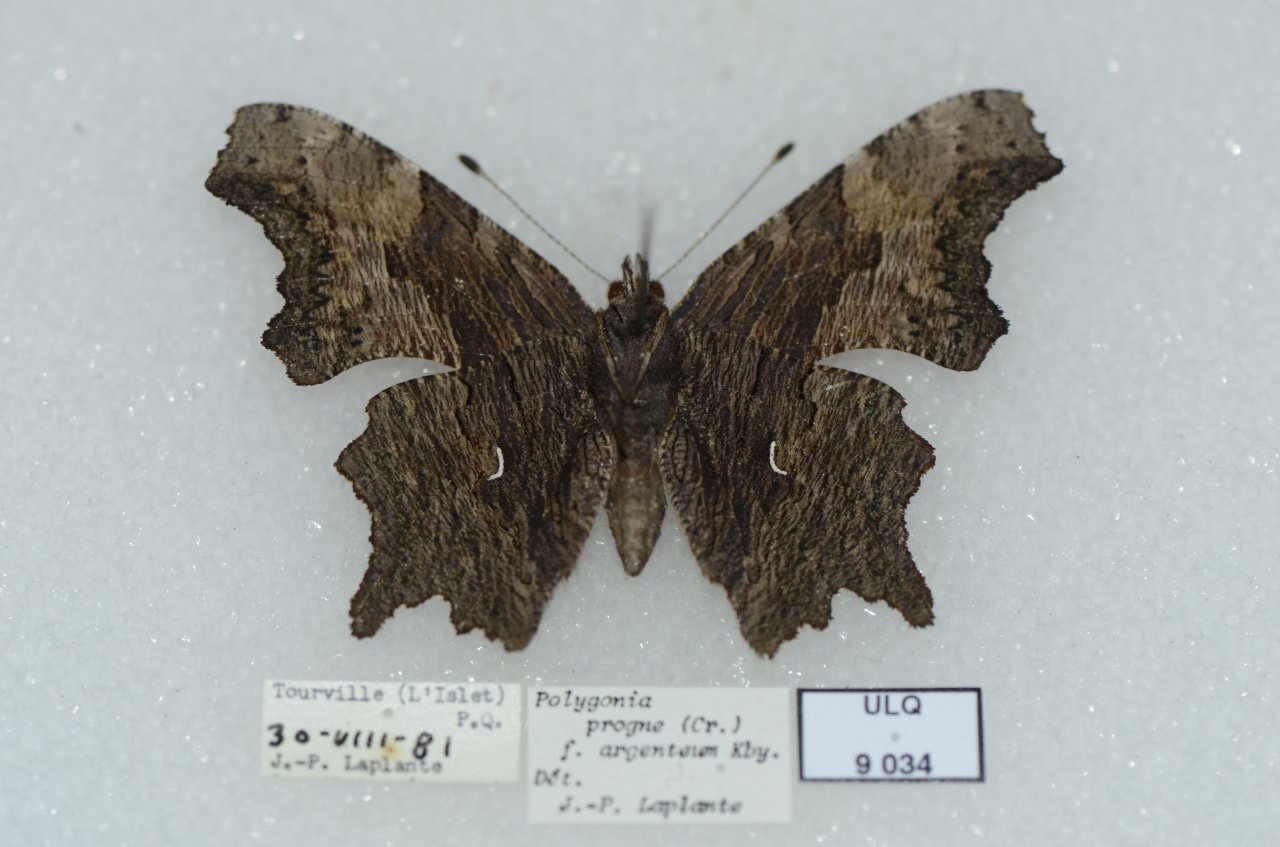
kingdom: Animalia
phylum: Arthropoda
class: Insecta
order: Lepidoptera
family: Nymphalidae
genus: Polygonia
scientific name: Polygonia progne
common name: Gray Comma
